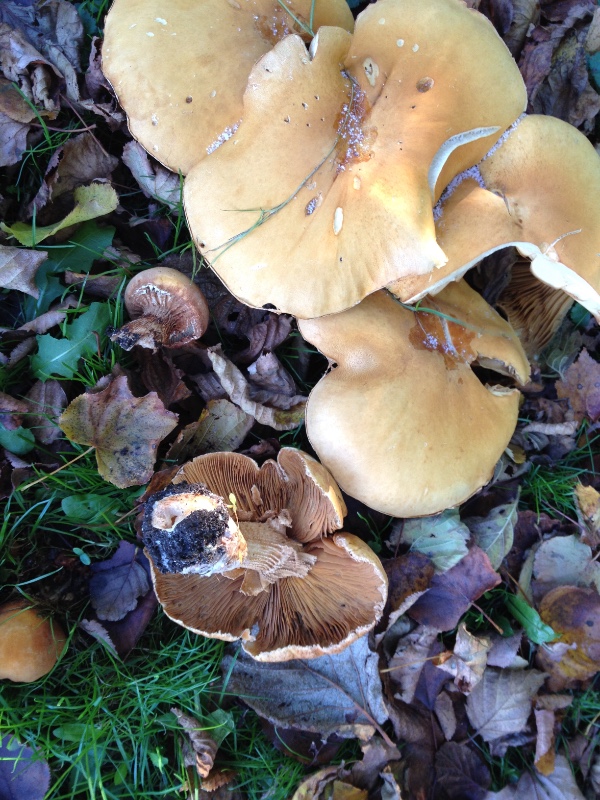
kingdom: Fungi
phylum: Basidiomycota
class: Agaricomycetes
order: Agaricales
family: Tricholomataceae
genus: Phaeolepiota
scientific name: Phaeolepiota aurea
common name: gyldenhat
